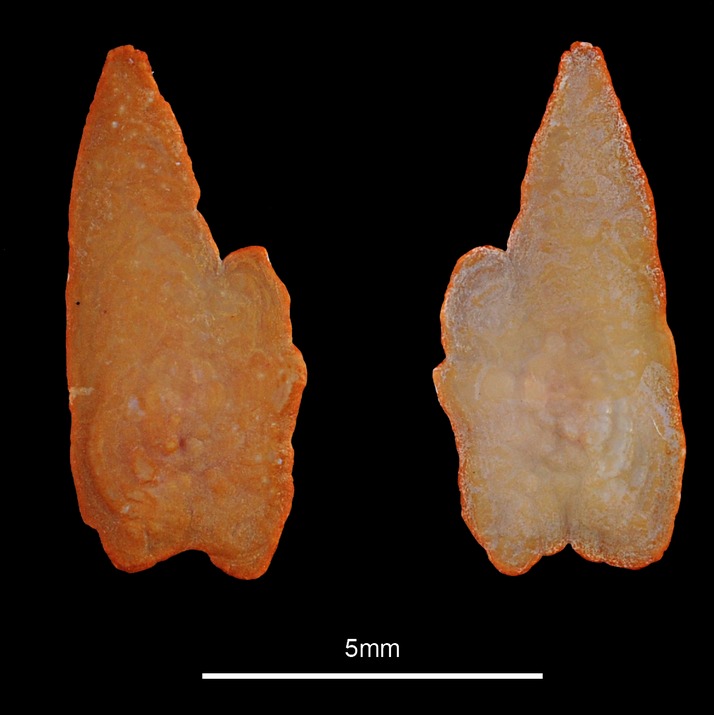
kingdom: Animalia
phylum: Chordata
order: Salmoniformes
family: Salmonidae
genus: Coregonus
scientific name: Coregonus oxyrinchus
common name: Houting
